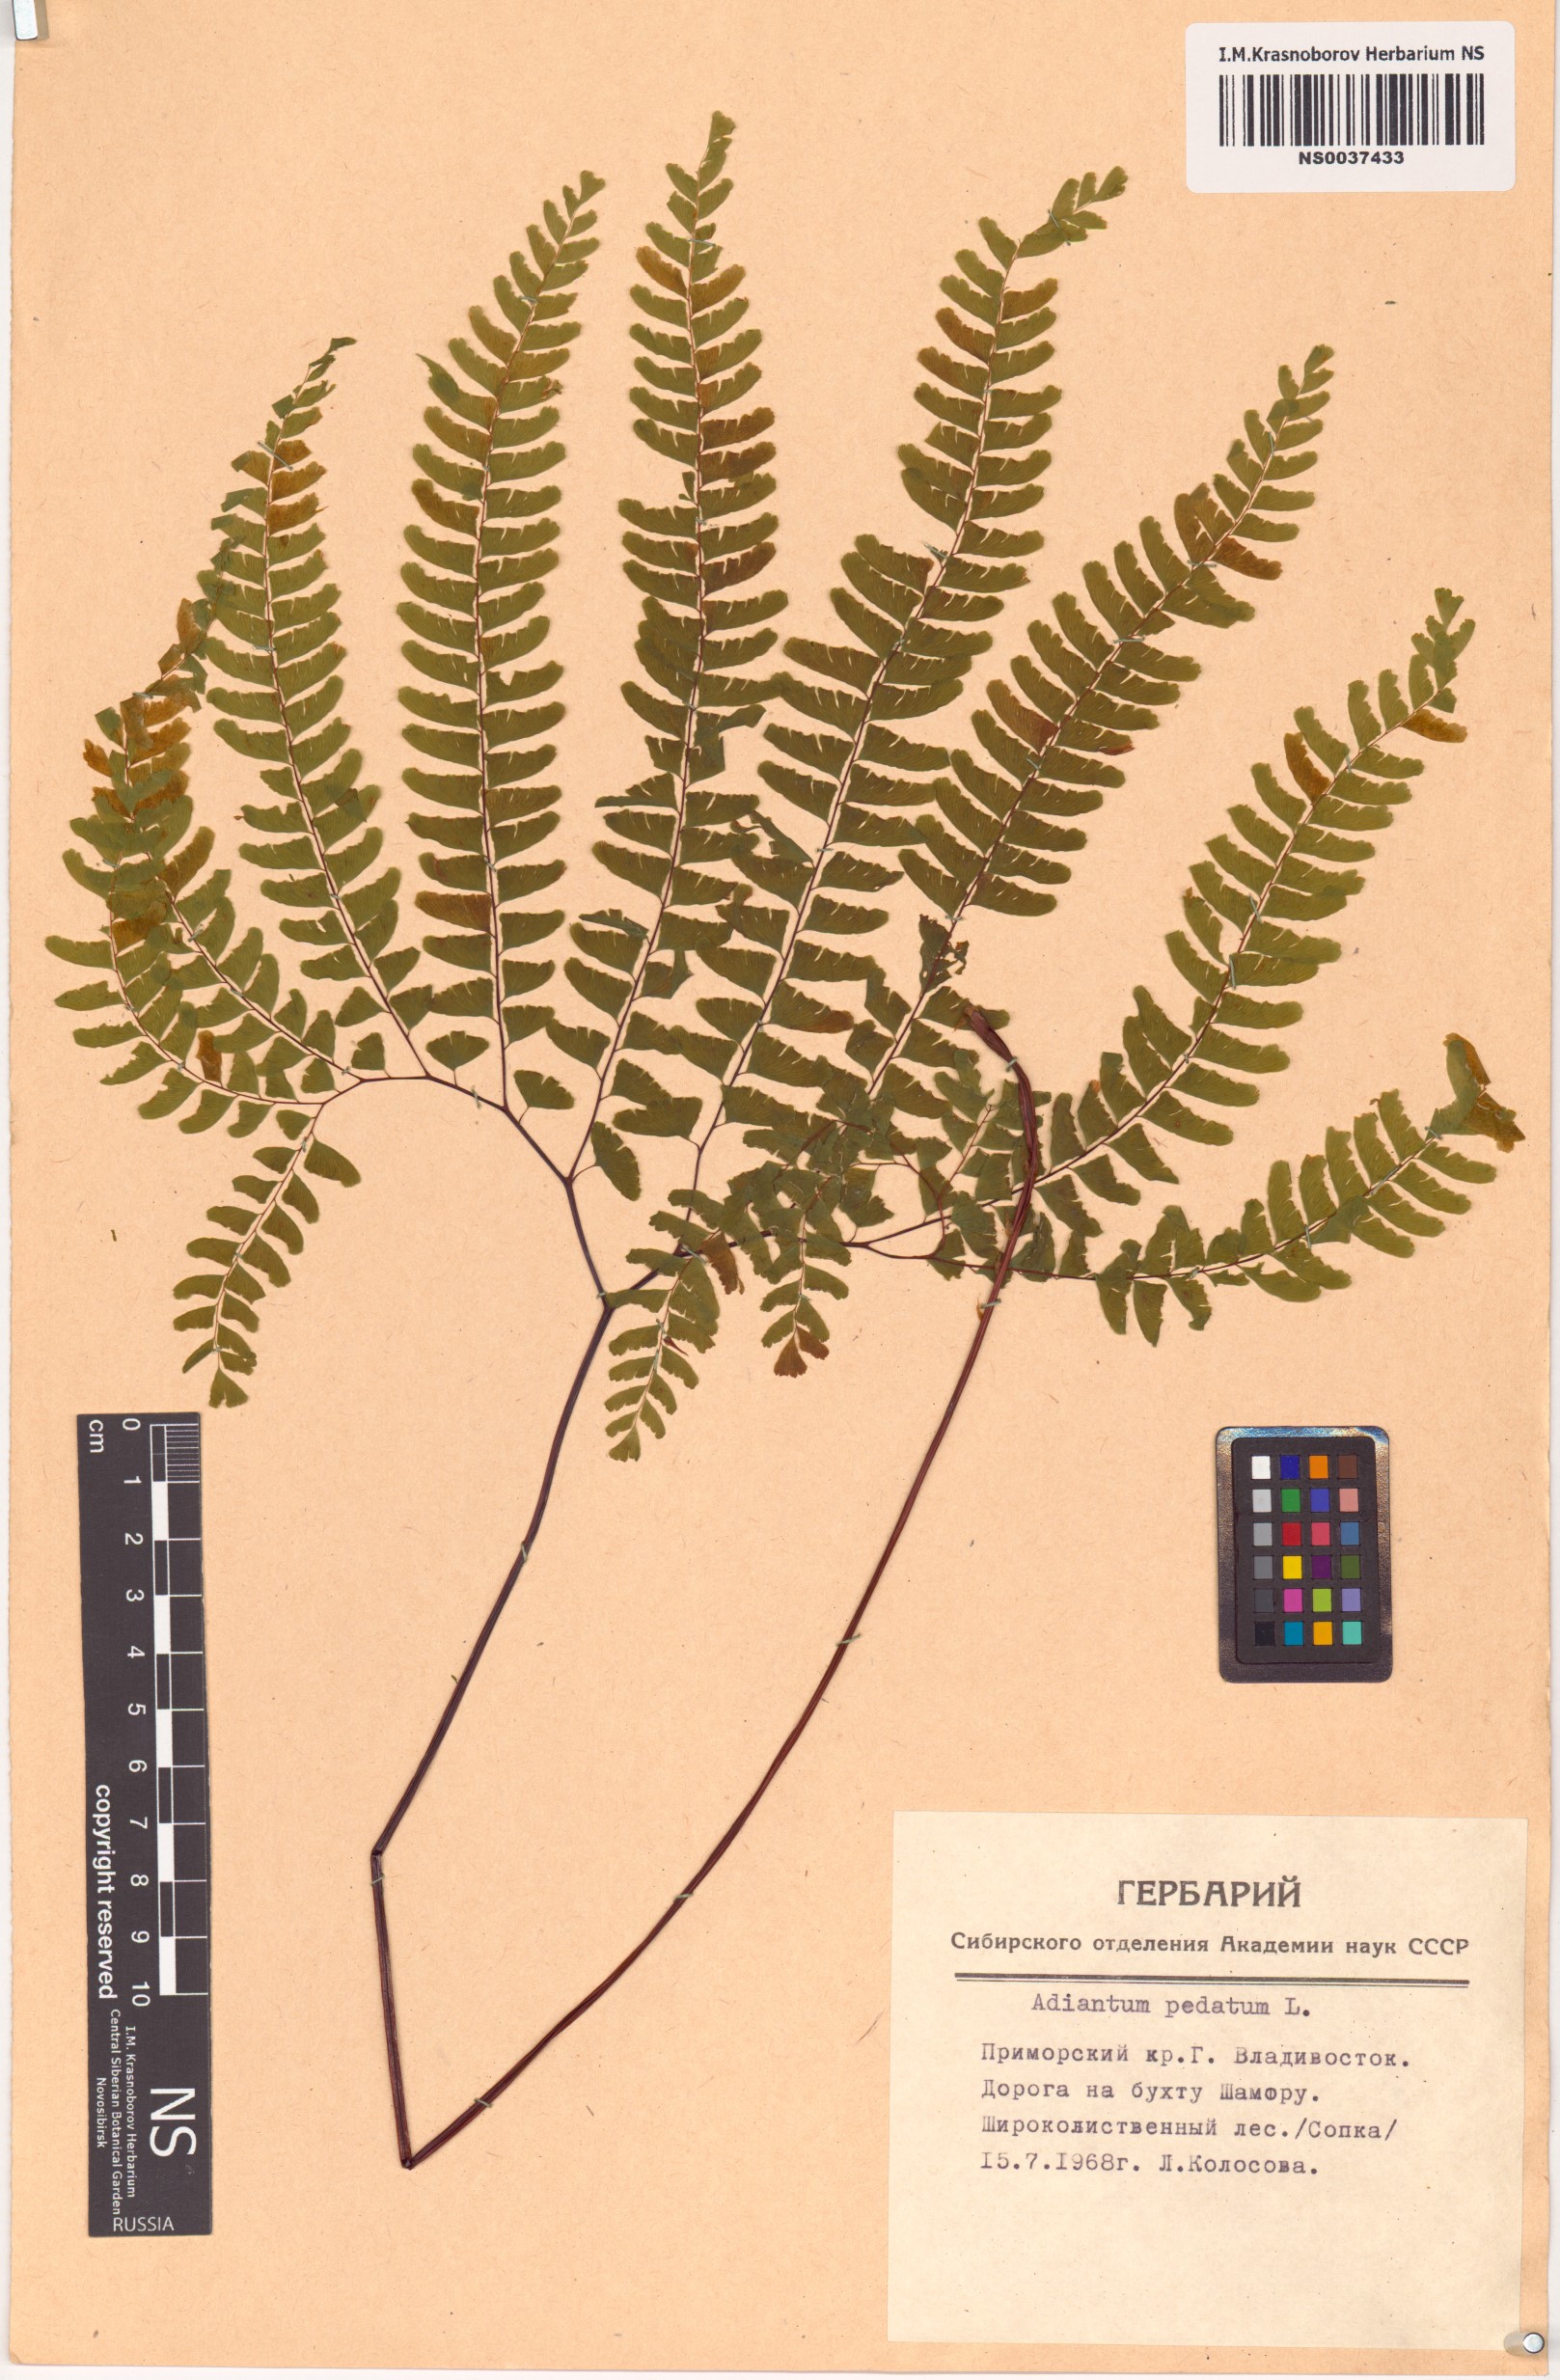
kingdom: Plantae
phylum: Tracheophyta
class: Polypodiopsida
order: Polypodiales
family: Pteridaceae
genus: Adiantum
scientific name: Adiantum pedatum
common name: Five-finger fern
